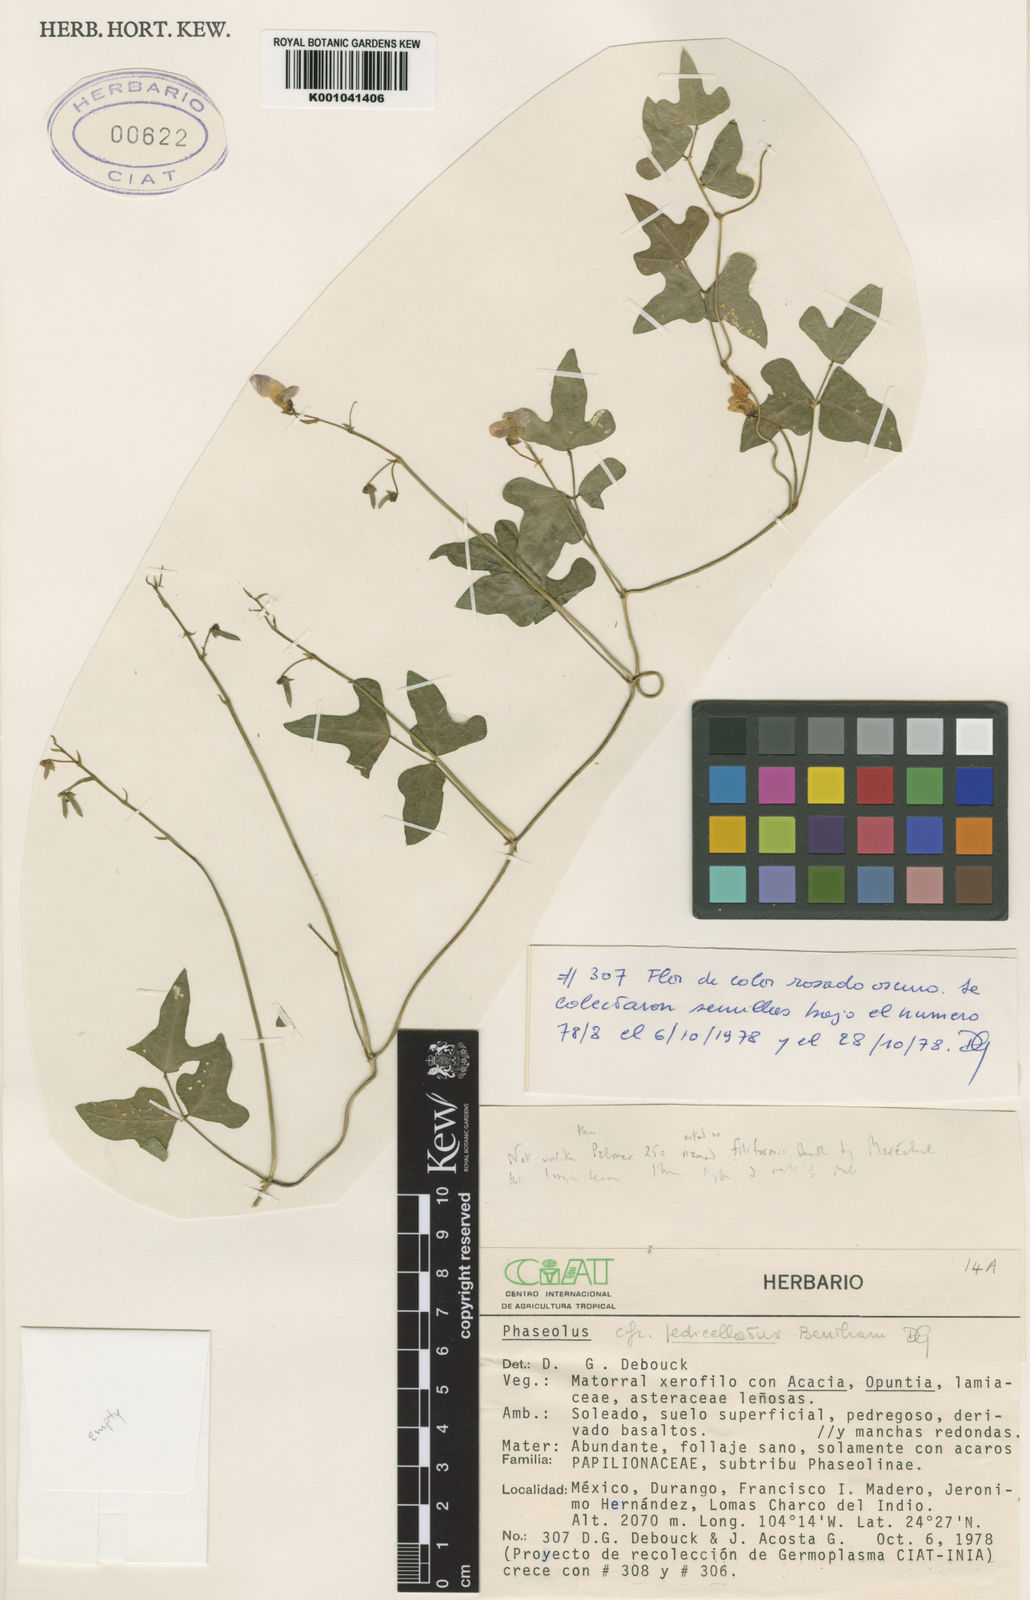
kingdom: Plantae
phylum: Tracheophyta
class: Magnoliopsida
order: Fabales
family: Fabaceae
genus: Phaseolus
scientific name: Phaseolus pedicellatus
